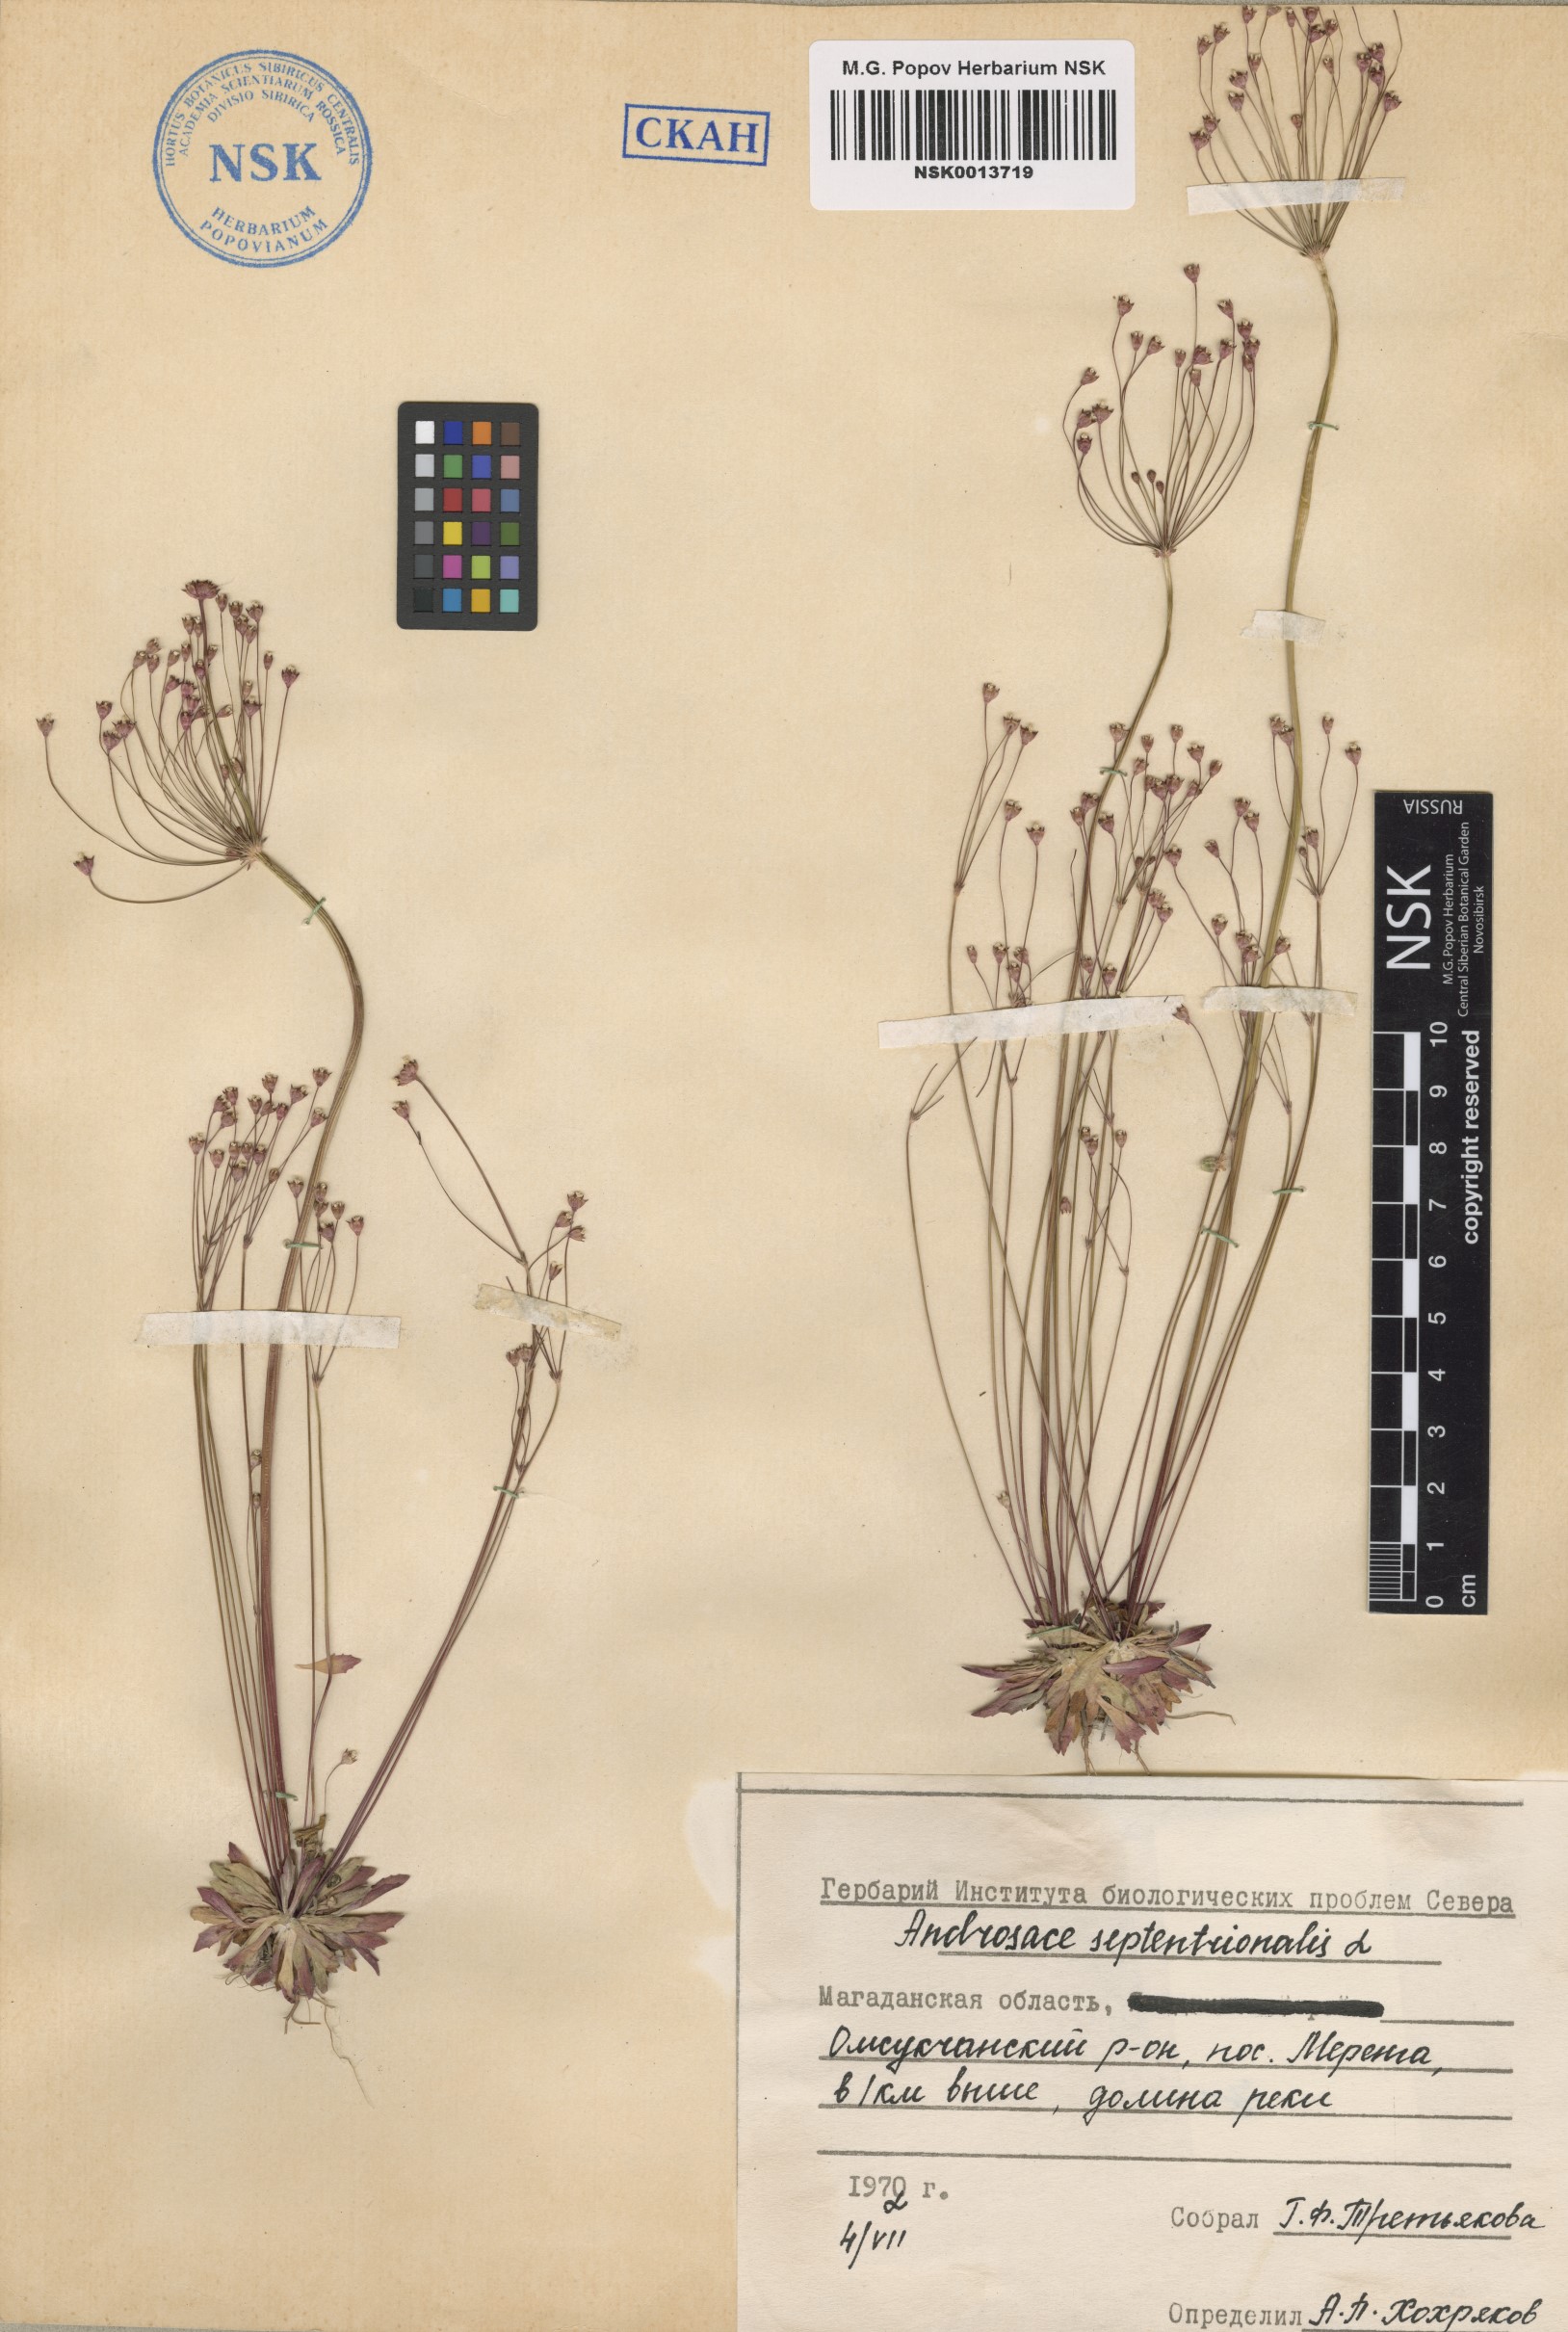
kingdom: Plantae
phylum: Tracheophyta
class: Magnoliopsida
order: Ericales
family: Primulaceae
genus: Androsace
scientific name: Androsace septentrionalis
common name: Hairy northern fairy-candelabra
